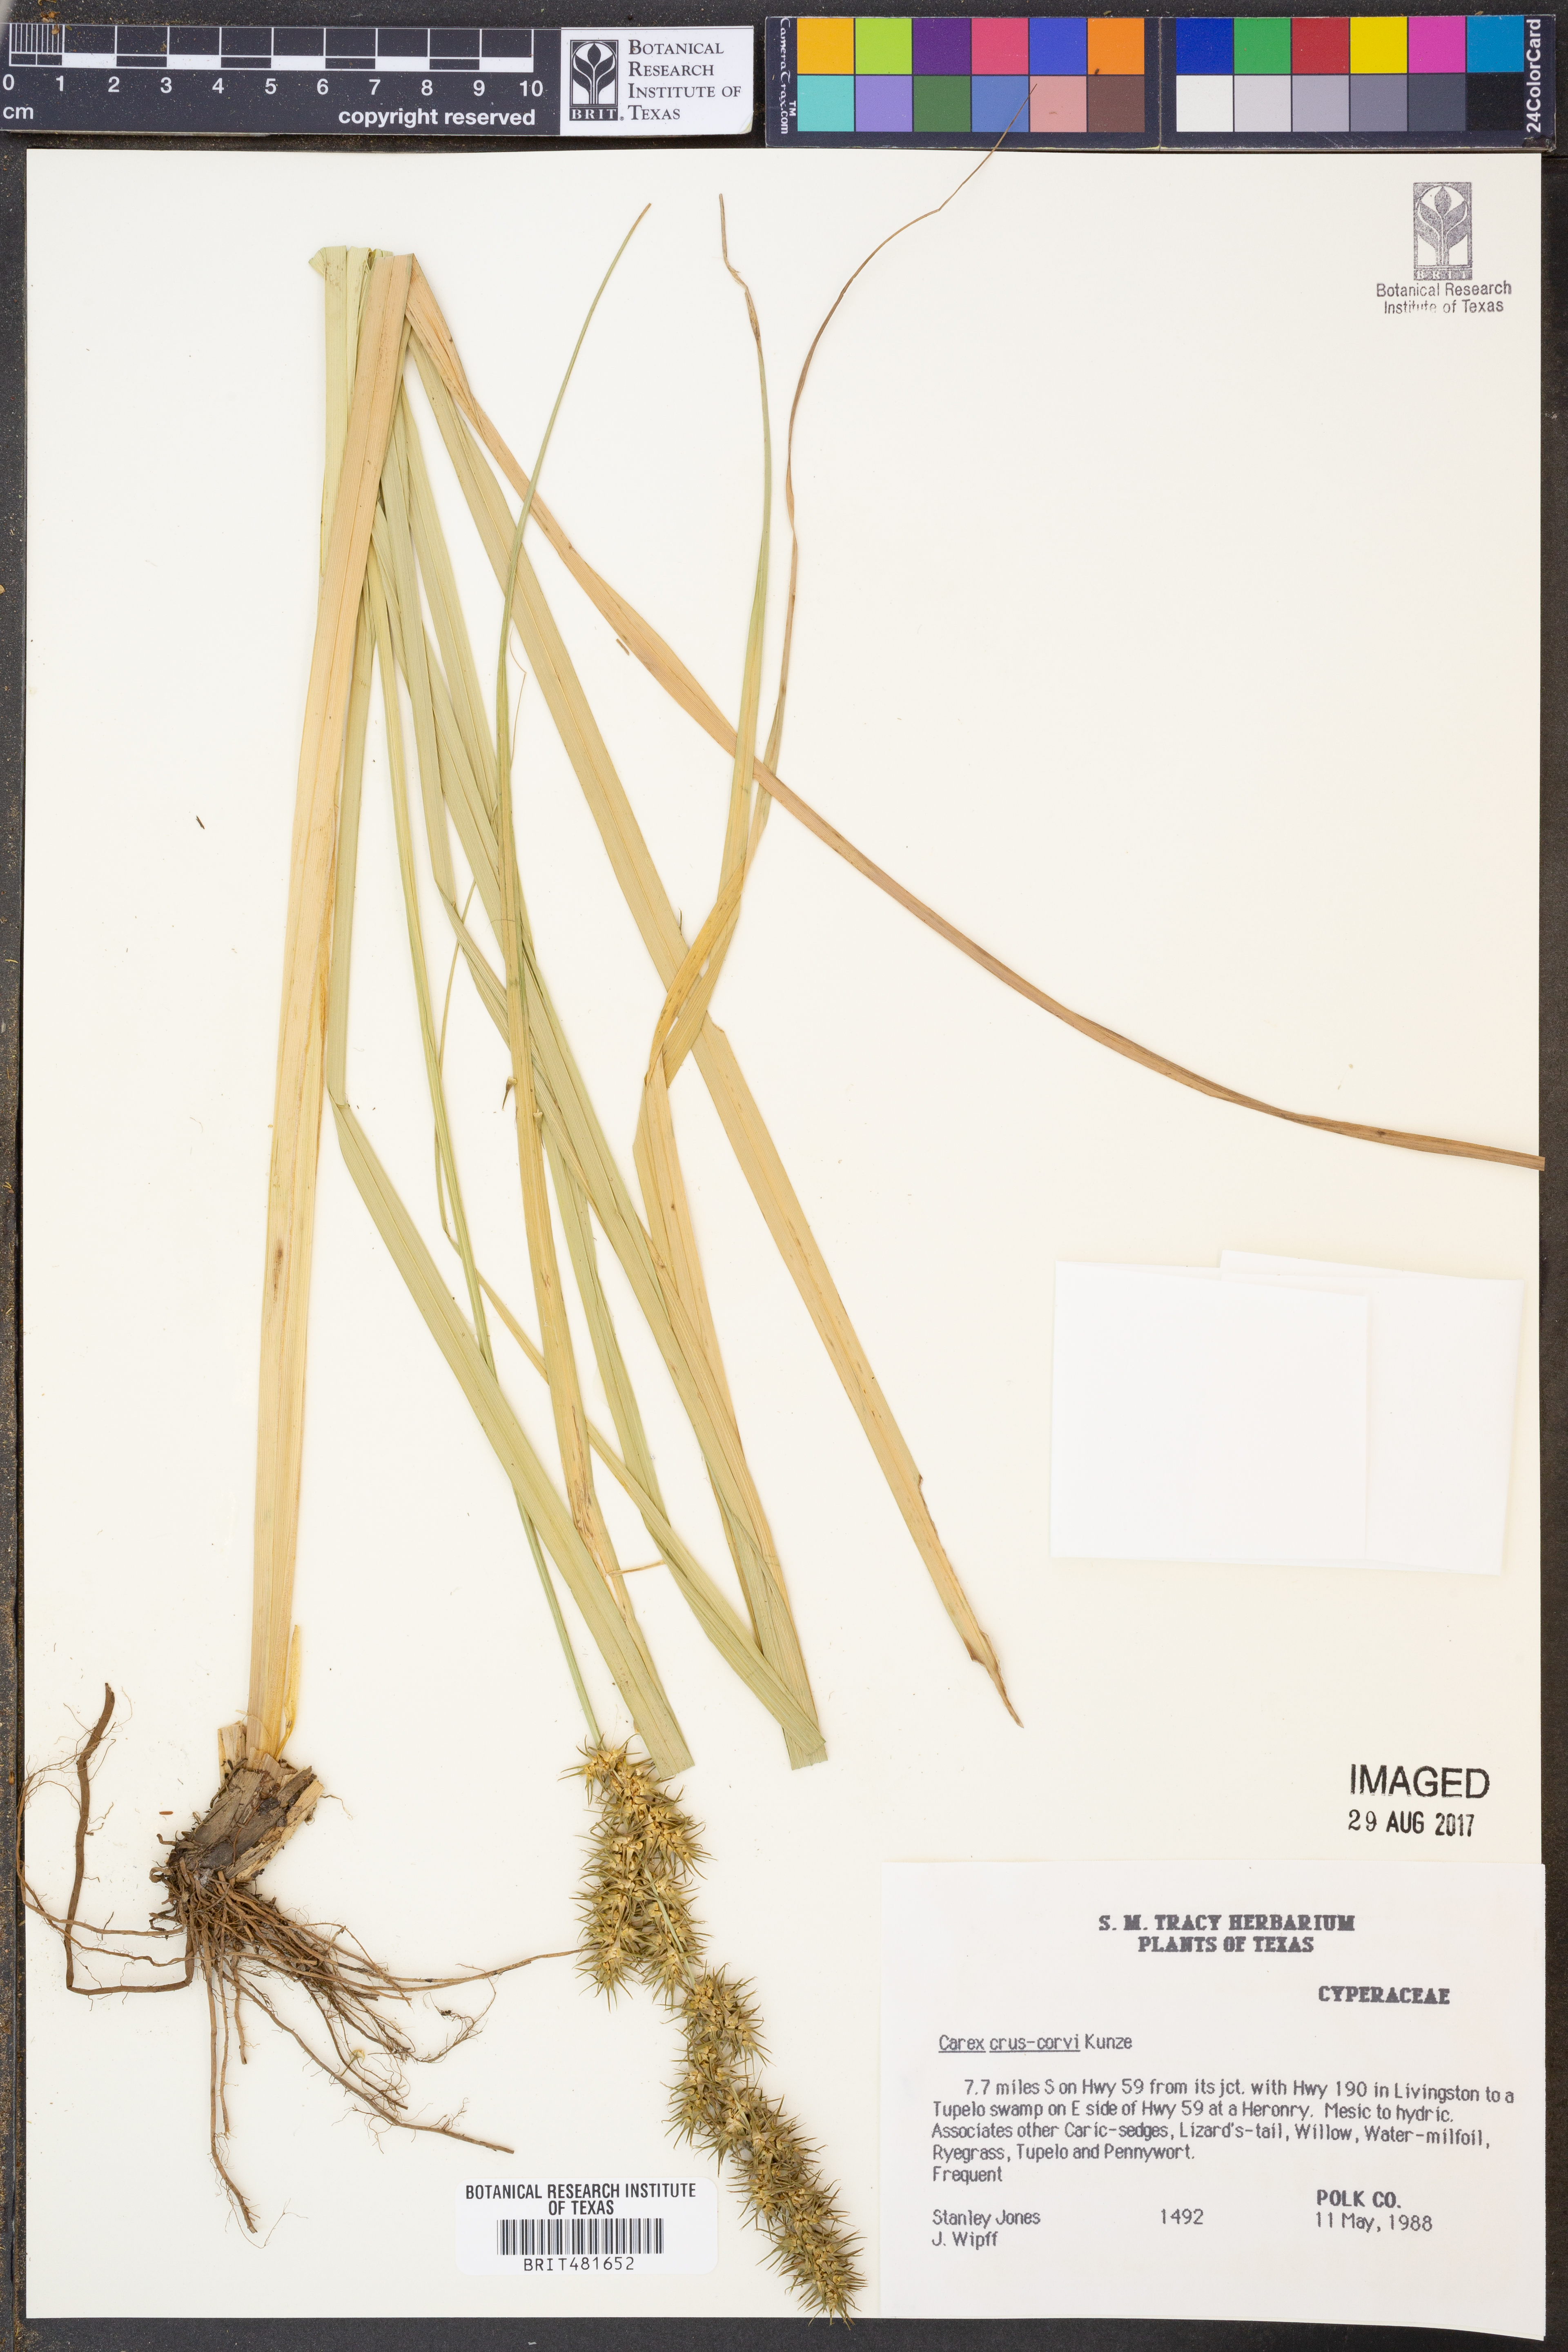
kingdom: Plantae
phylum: Tracheophyta
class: Liliopsida
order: Poales
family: Cyperaceae
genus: Carex
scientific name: Carex crus-corvi
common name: Crow-spur sedge
